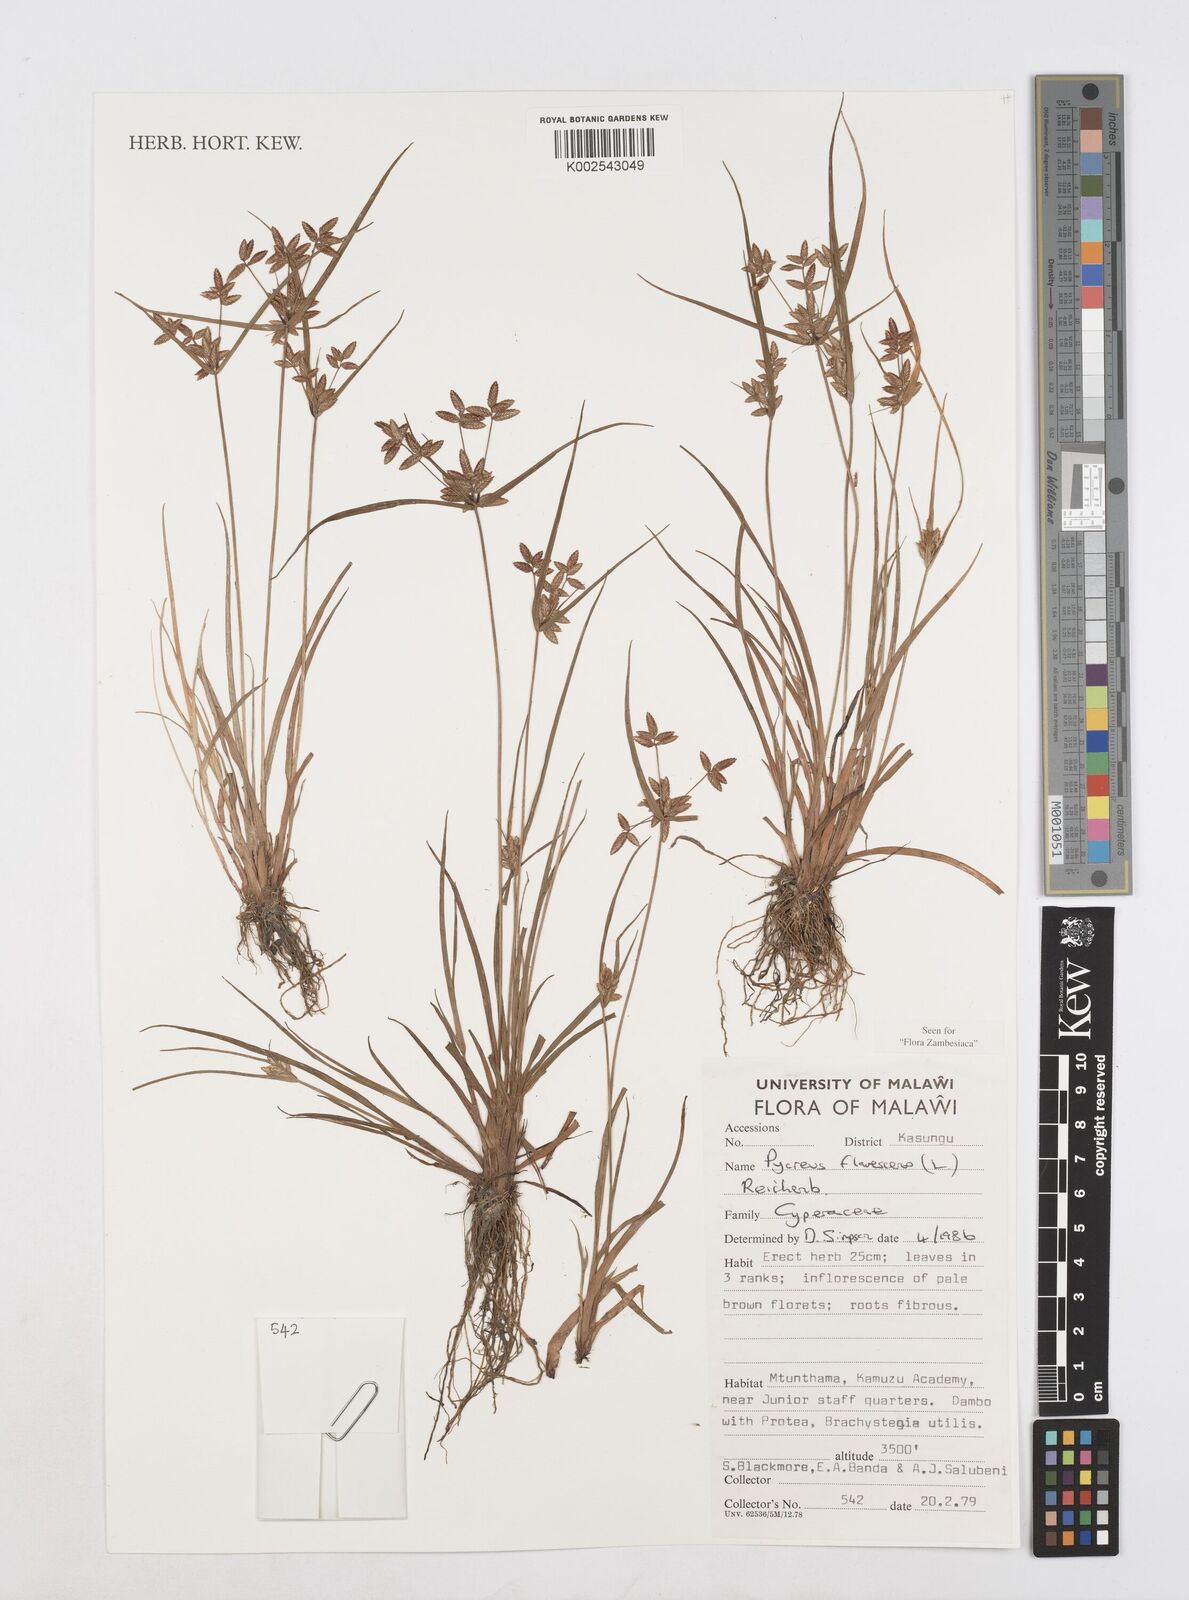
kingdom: Plantae
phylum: Tracheophyta
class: Liliopsida
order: Poales
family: Cyperaceae
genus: Cyperus
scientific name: Cyperus flavescens
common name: Yellow galingale
